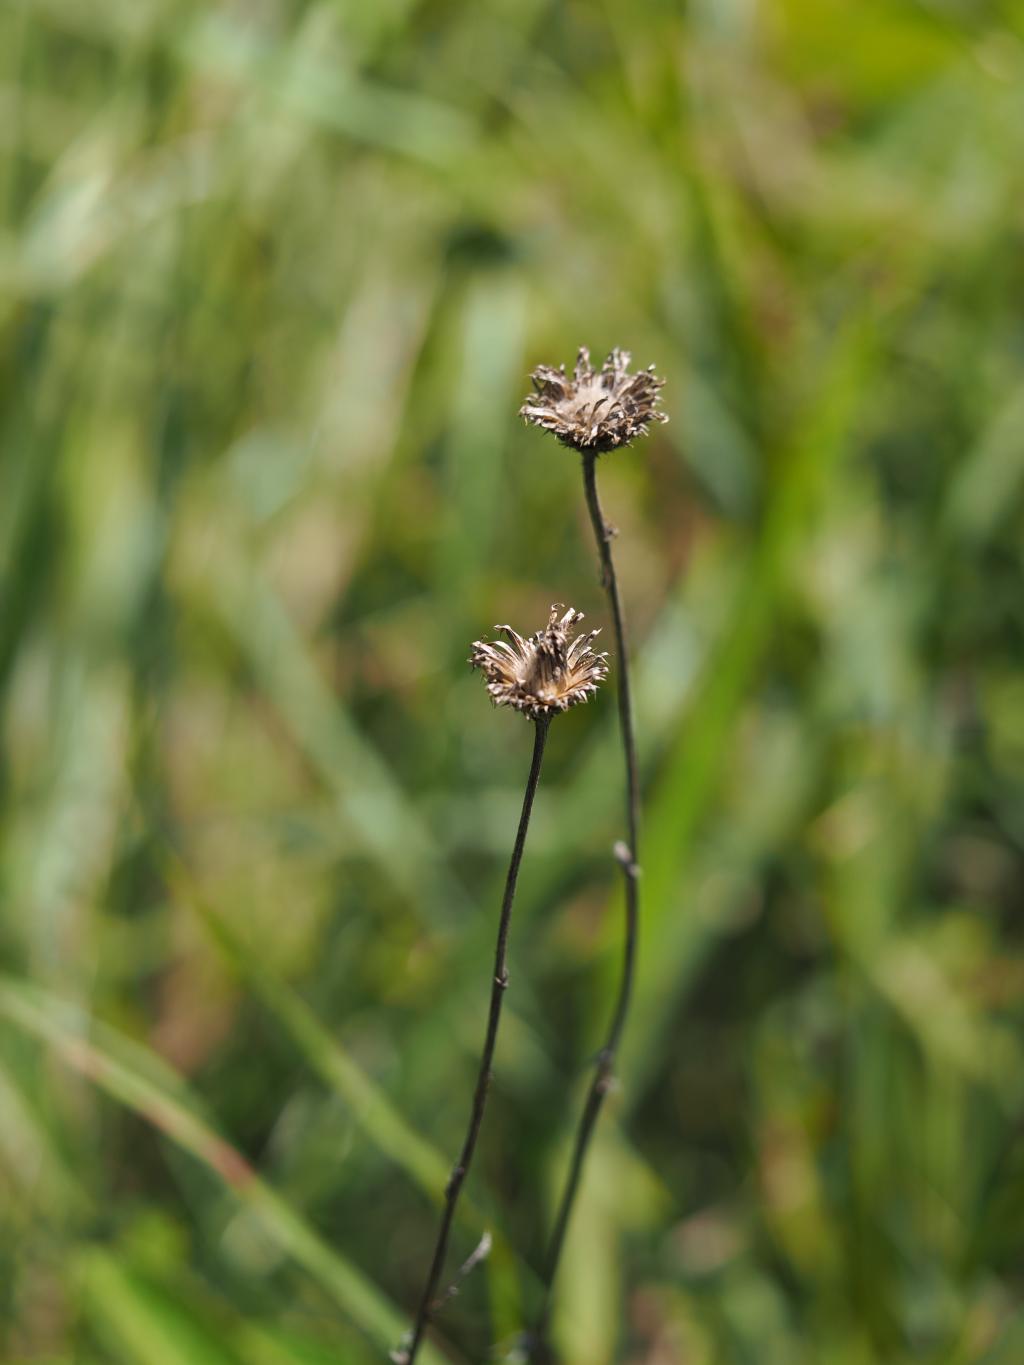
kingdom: Plantae
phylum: Tracheophyta
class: Magnoliopsida
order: Asterales
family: Asteraceae
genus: Cirsium
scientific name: Cirsium lineare
